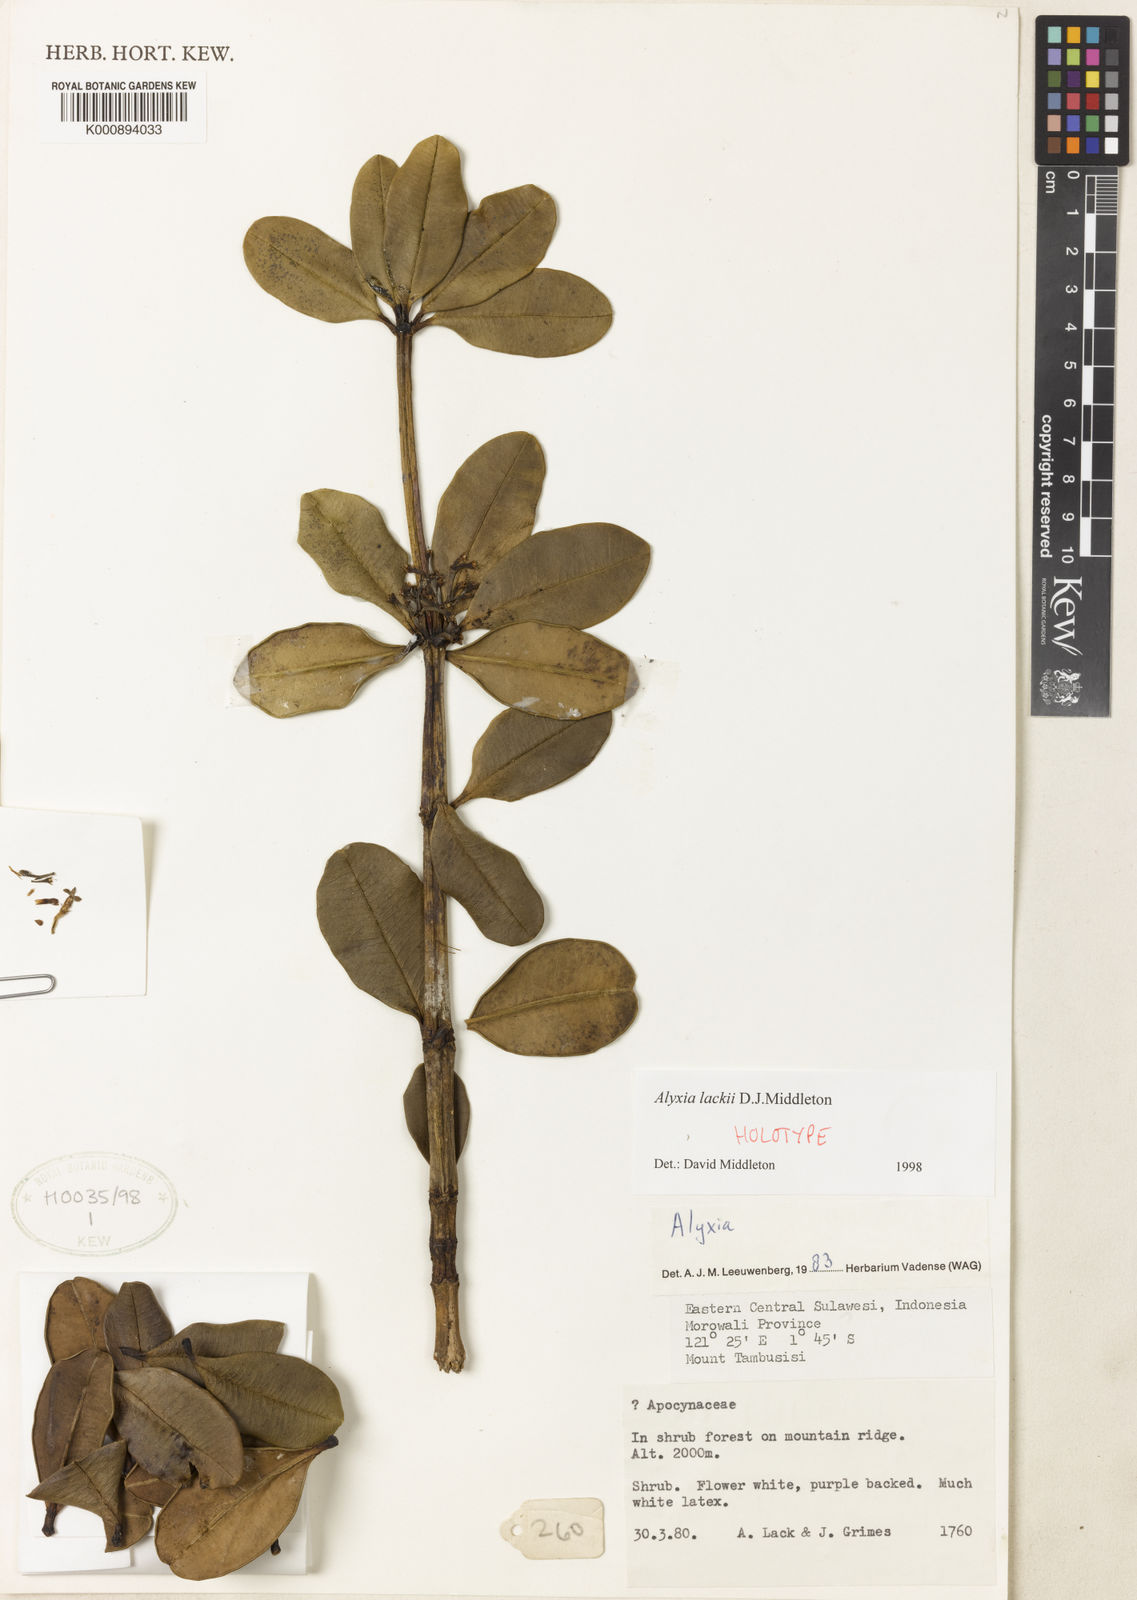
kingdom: Plantae
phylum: Tracheophyta
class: Magnoliopsida
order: Gentianales
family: Apocynaceae
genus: Alyxia
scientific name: Alyxia lackii
